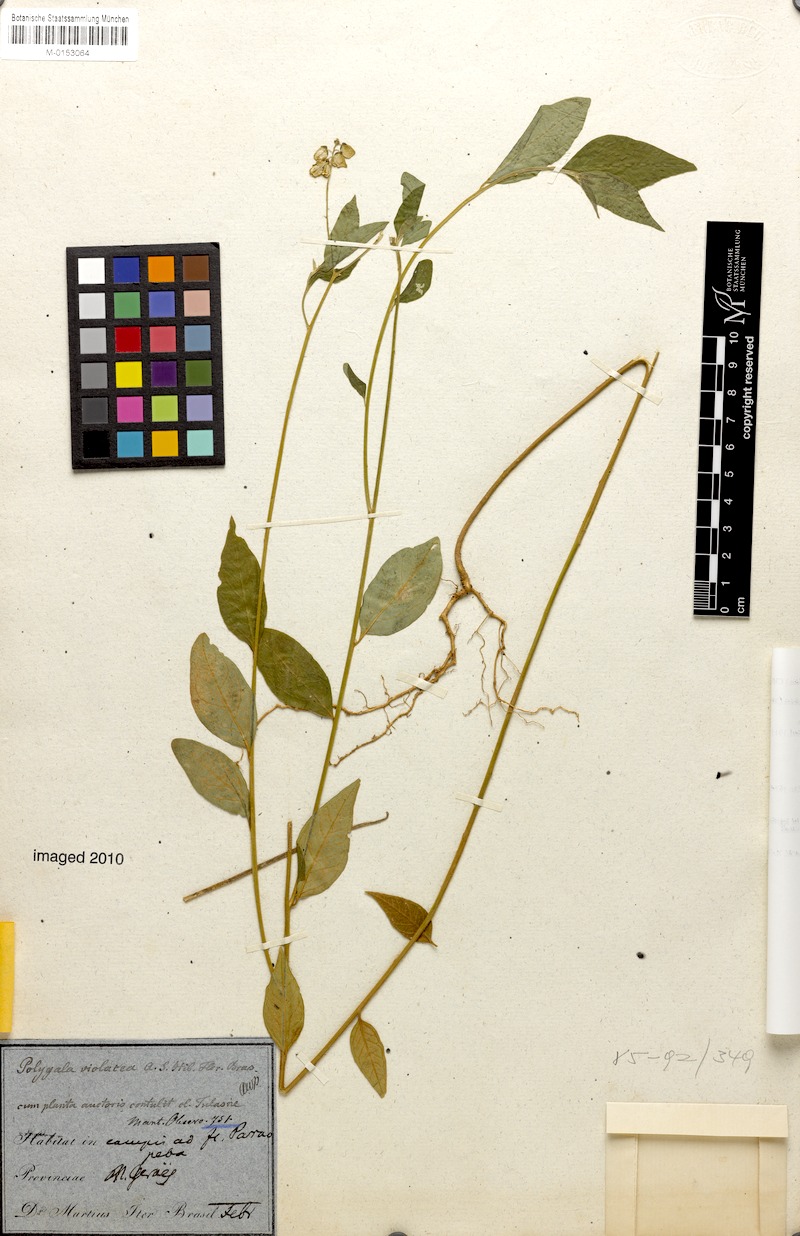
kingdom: Plantae
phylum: Tracheophyta
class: Magnoliopsida
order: Fabales
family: Polygalaceae
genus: Asemeia
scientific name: Asemeia monninoides
